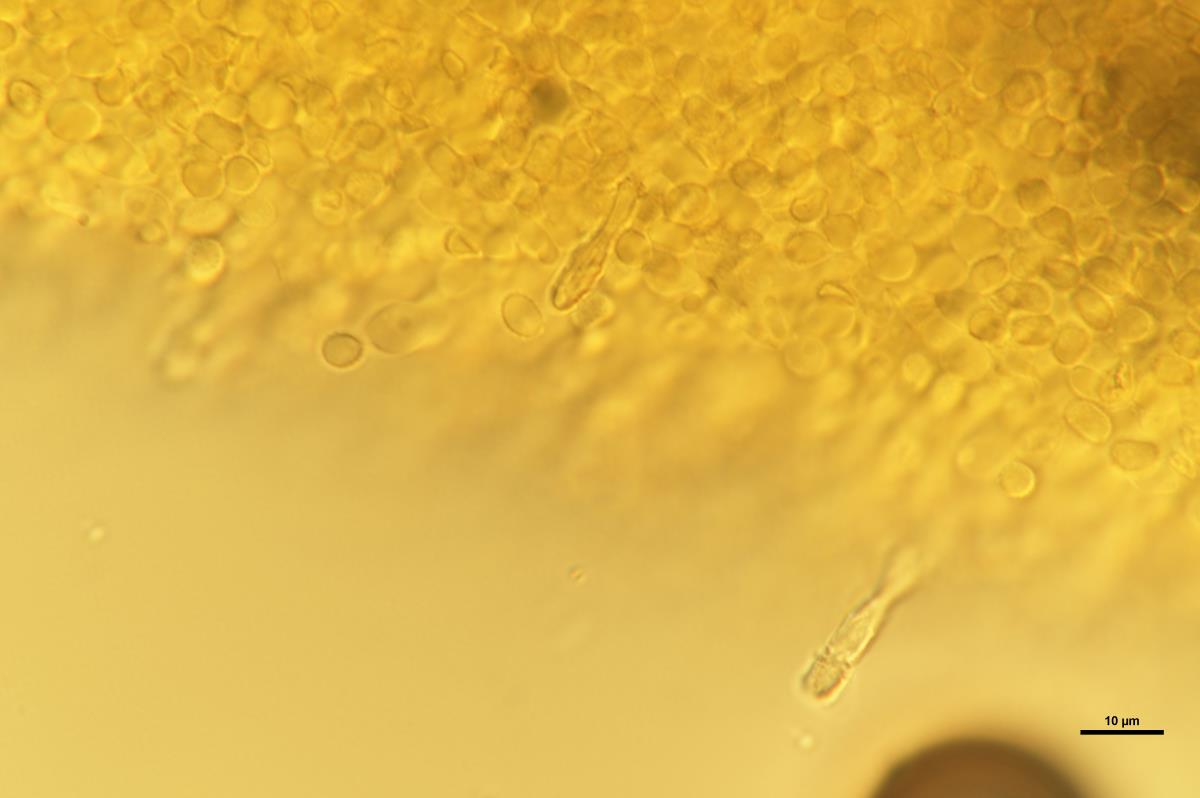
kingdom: Fungi
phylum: Basidiomycota
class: Agaricomycetes
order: Agaricales
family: Tricholomataceae
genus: Melanoleuca
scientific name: Melanoleuca vinosa
